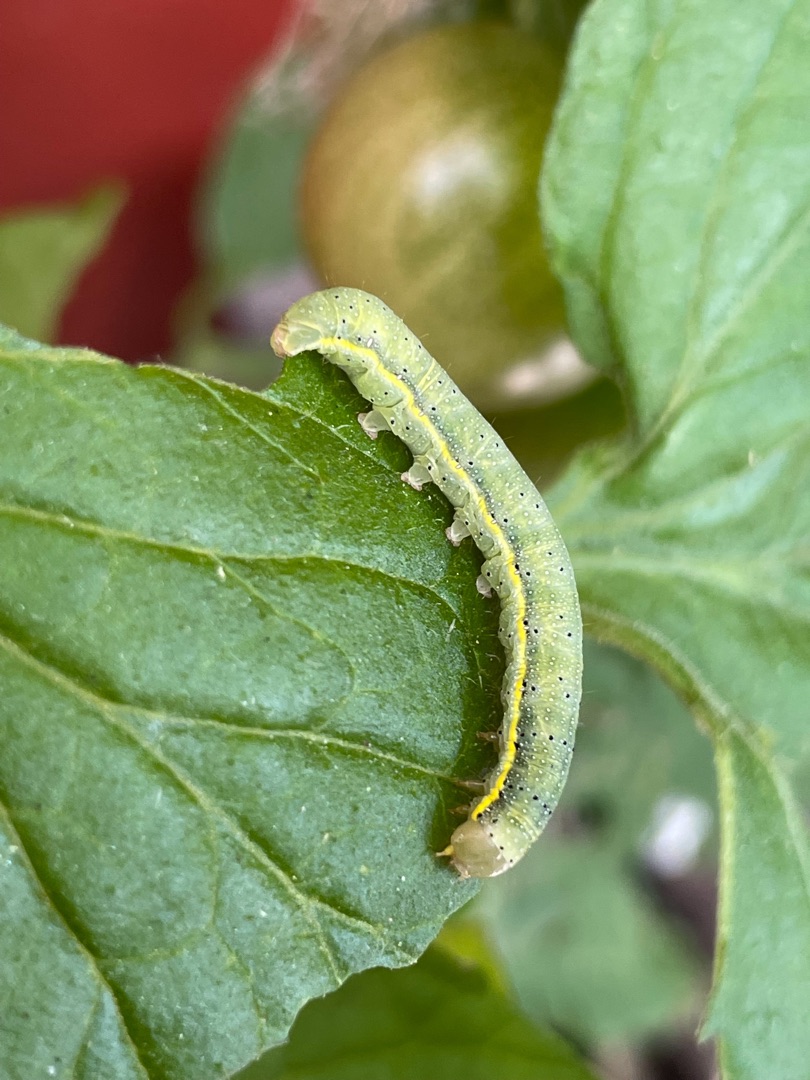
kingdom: Animalia
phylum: Arthropoda
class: Insecta
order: Lepidoptera
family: Noctuidae
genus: Lacanobia
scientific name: Lacanobia oleracea
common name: Haveugle
